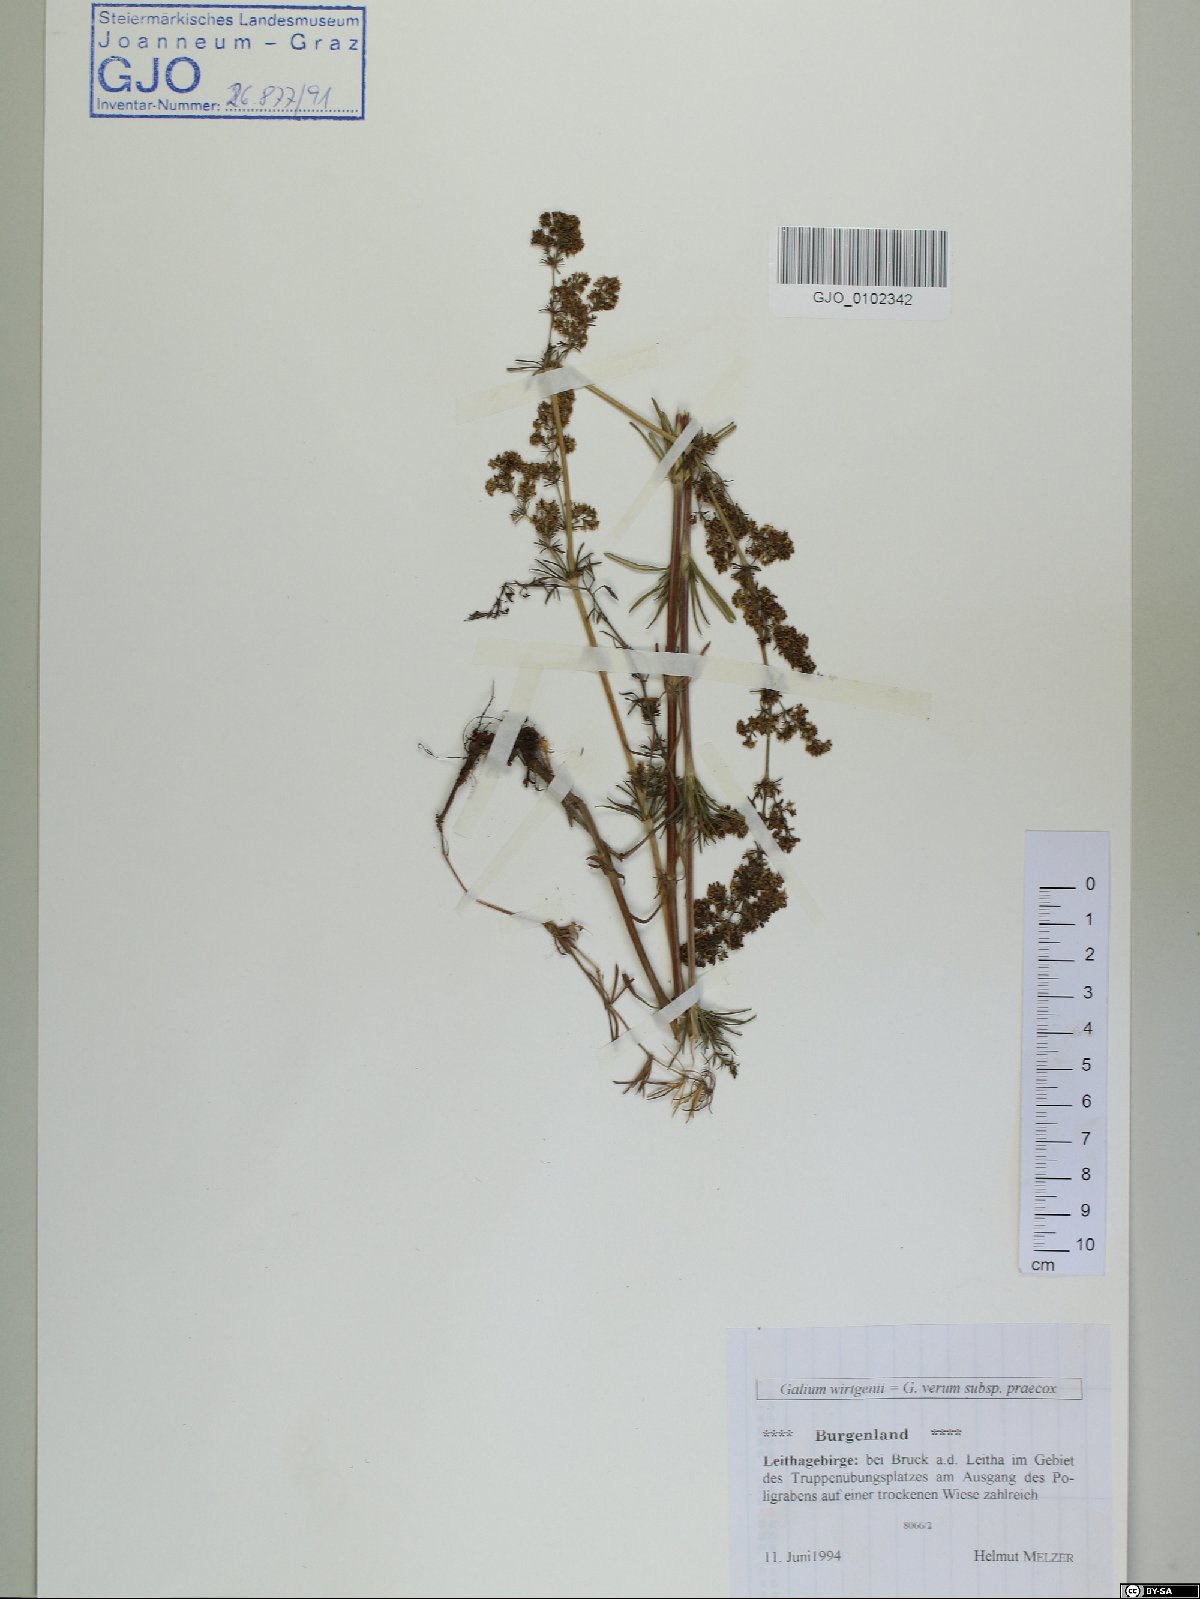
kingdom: Plantae
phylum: Tracheophyta
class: Magnoliopsida
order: Gentianales
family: Rubiaceae
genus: Galium
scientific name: Galium verum
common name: Lady's bedstraw
